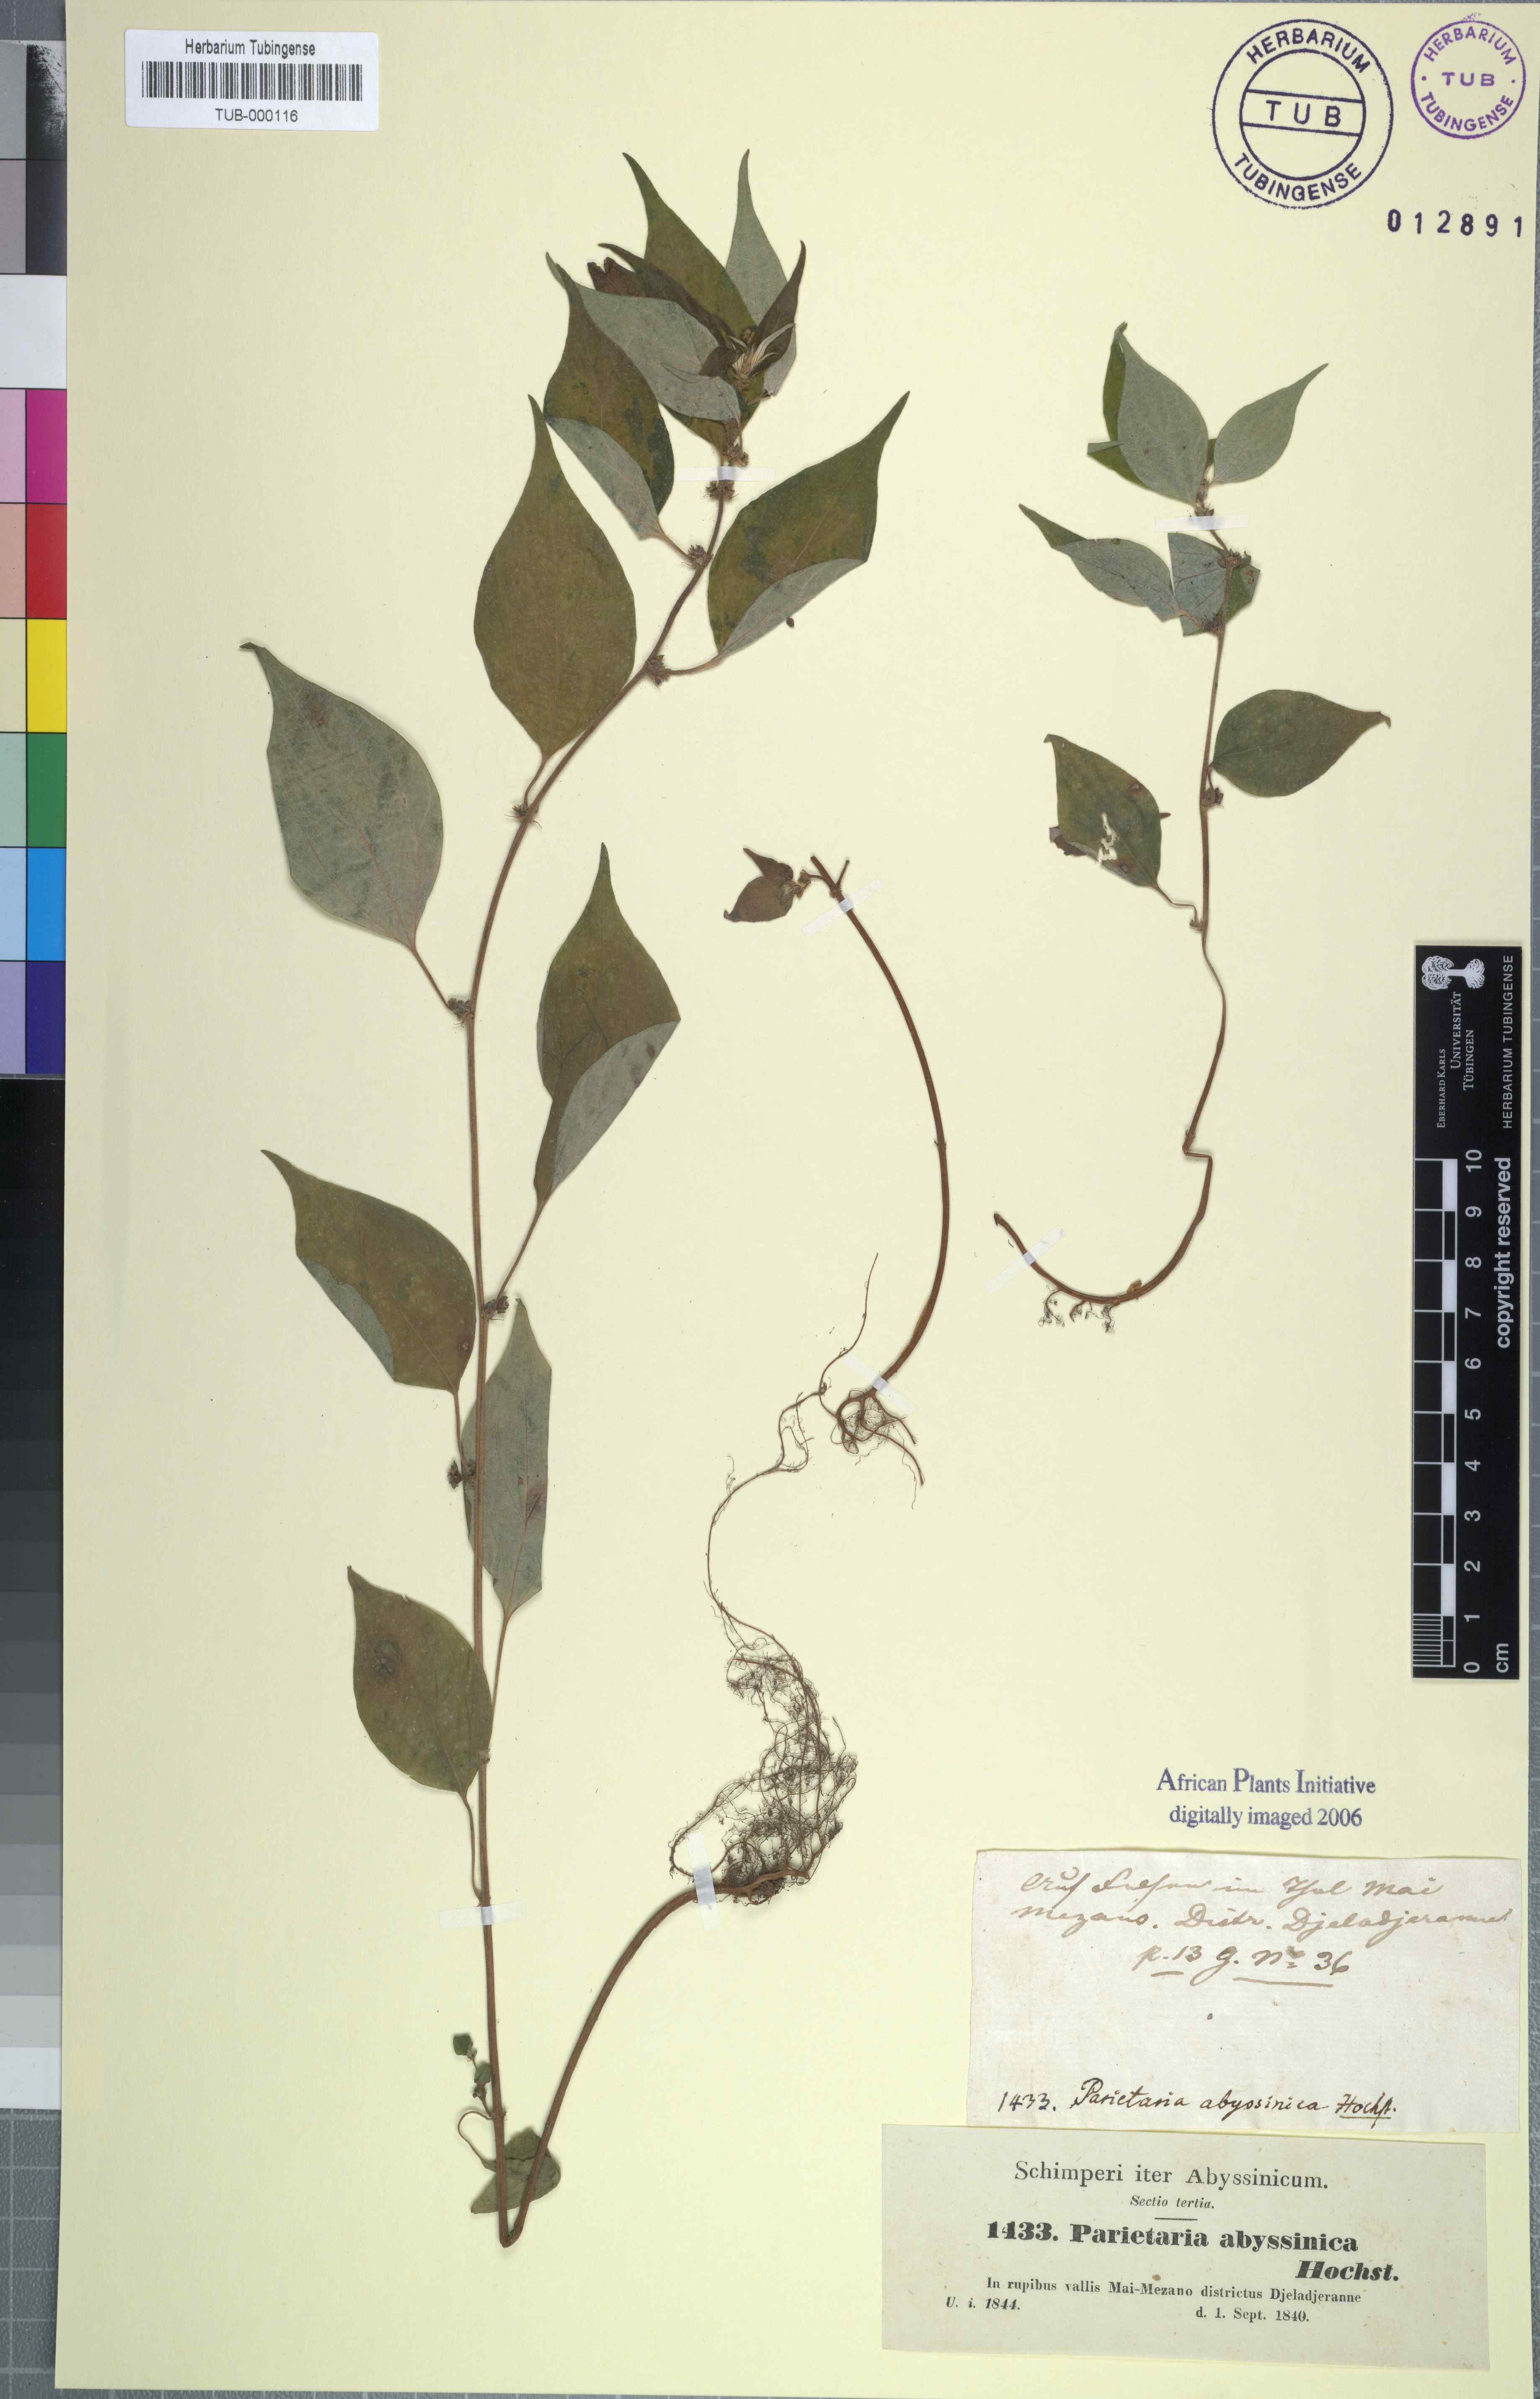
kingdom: Plantae
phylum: Tracheophyta
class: Magnoliopsida
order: Rosales
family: Urticaceae
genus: Pouzolzia
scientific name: Pouzolzia guineensis
